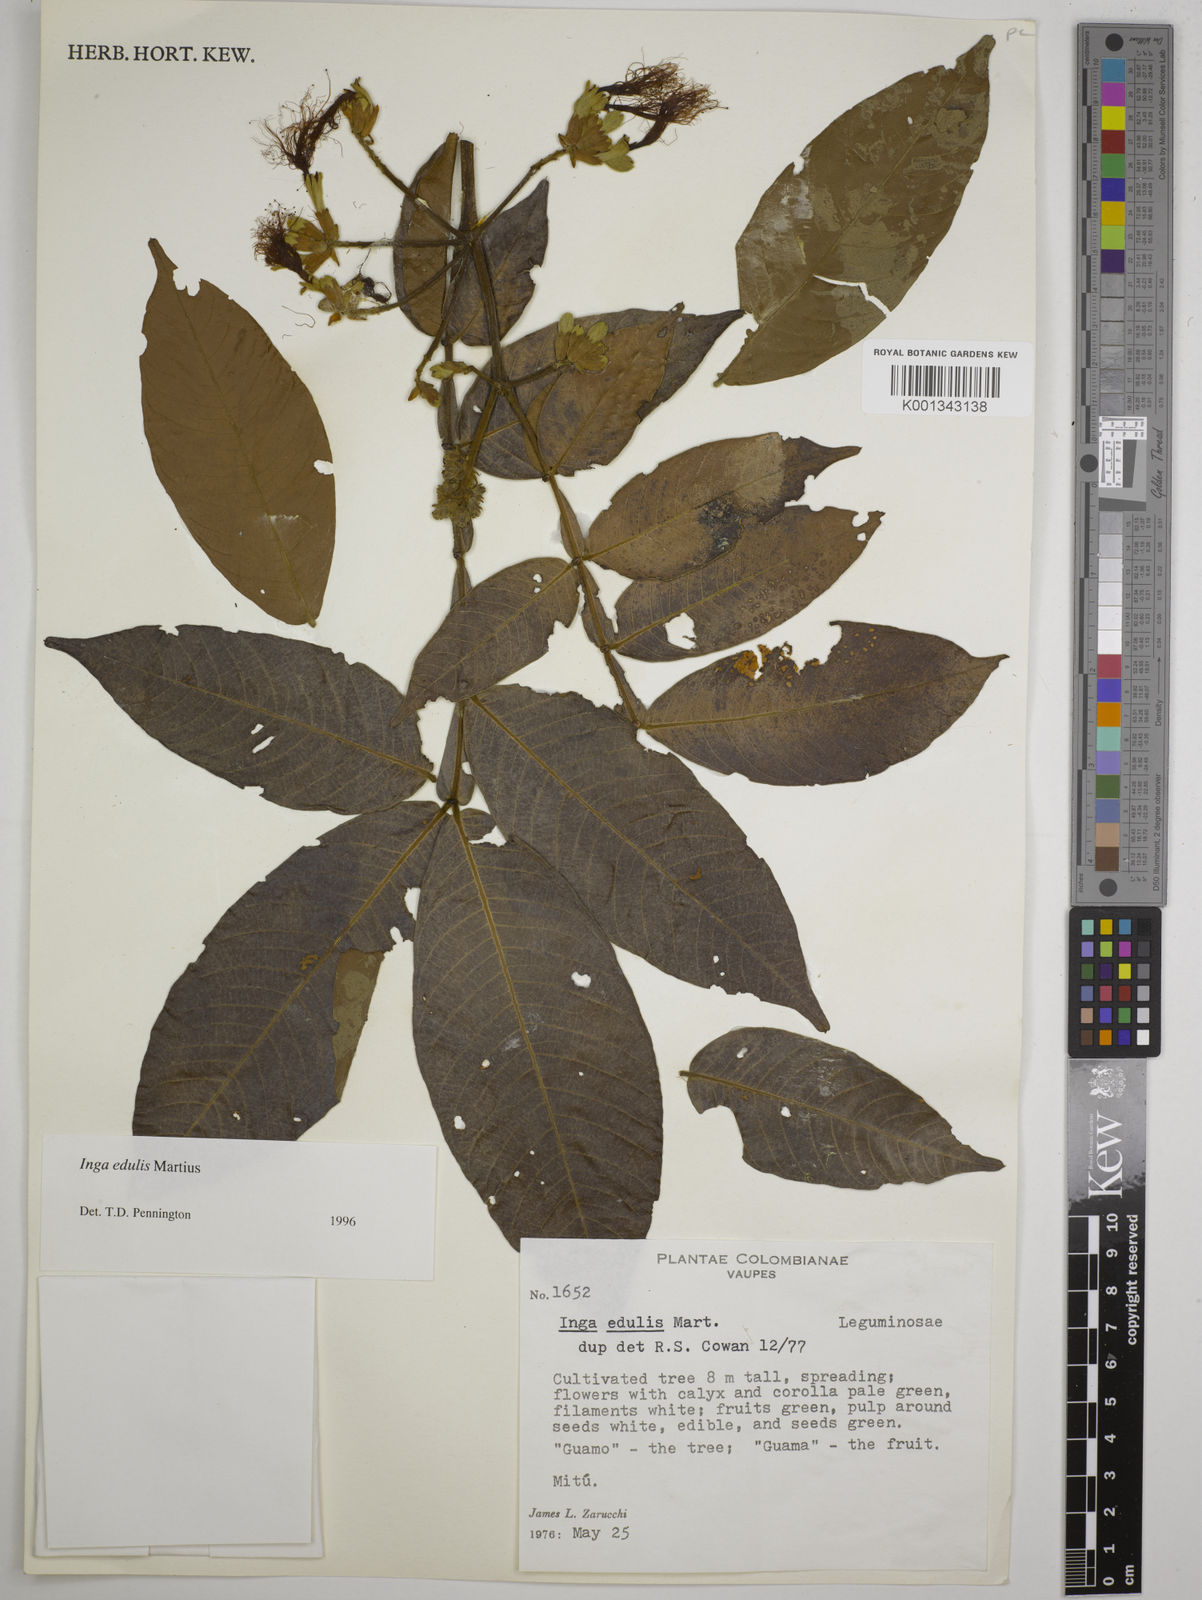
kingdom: Plantae
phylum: Tracheophyta
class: Magnoliopsida
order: Fabales
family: Fabaceae
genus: Inga
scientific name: Inga edulis
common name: Ice cream bean
